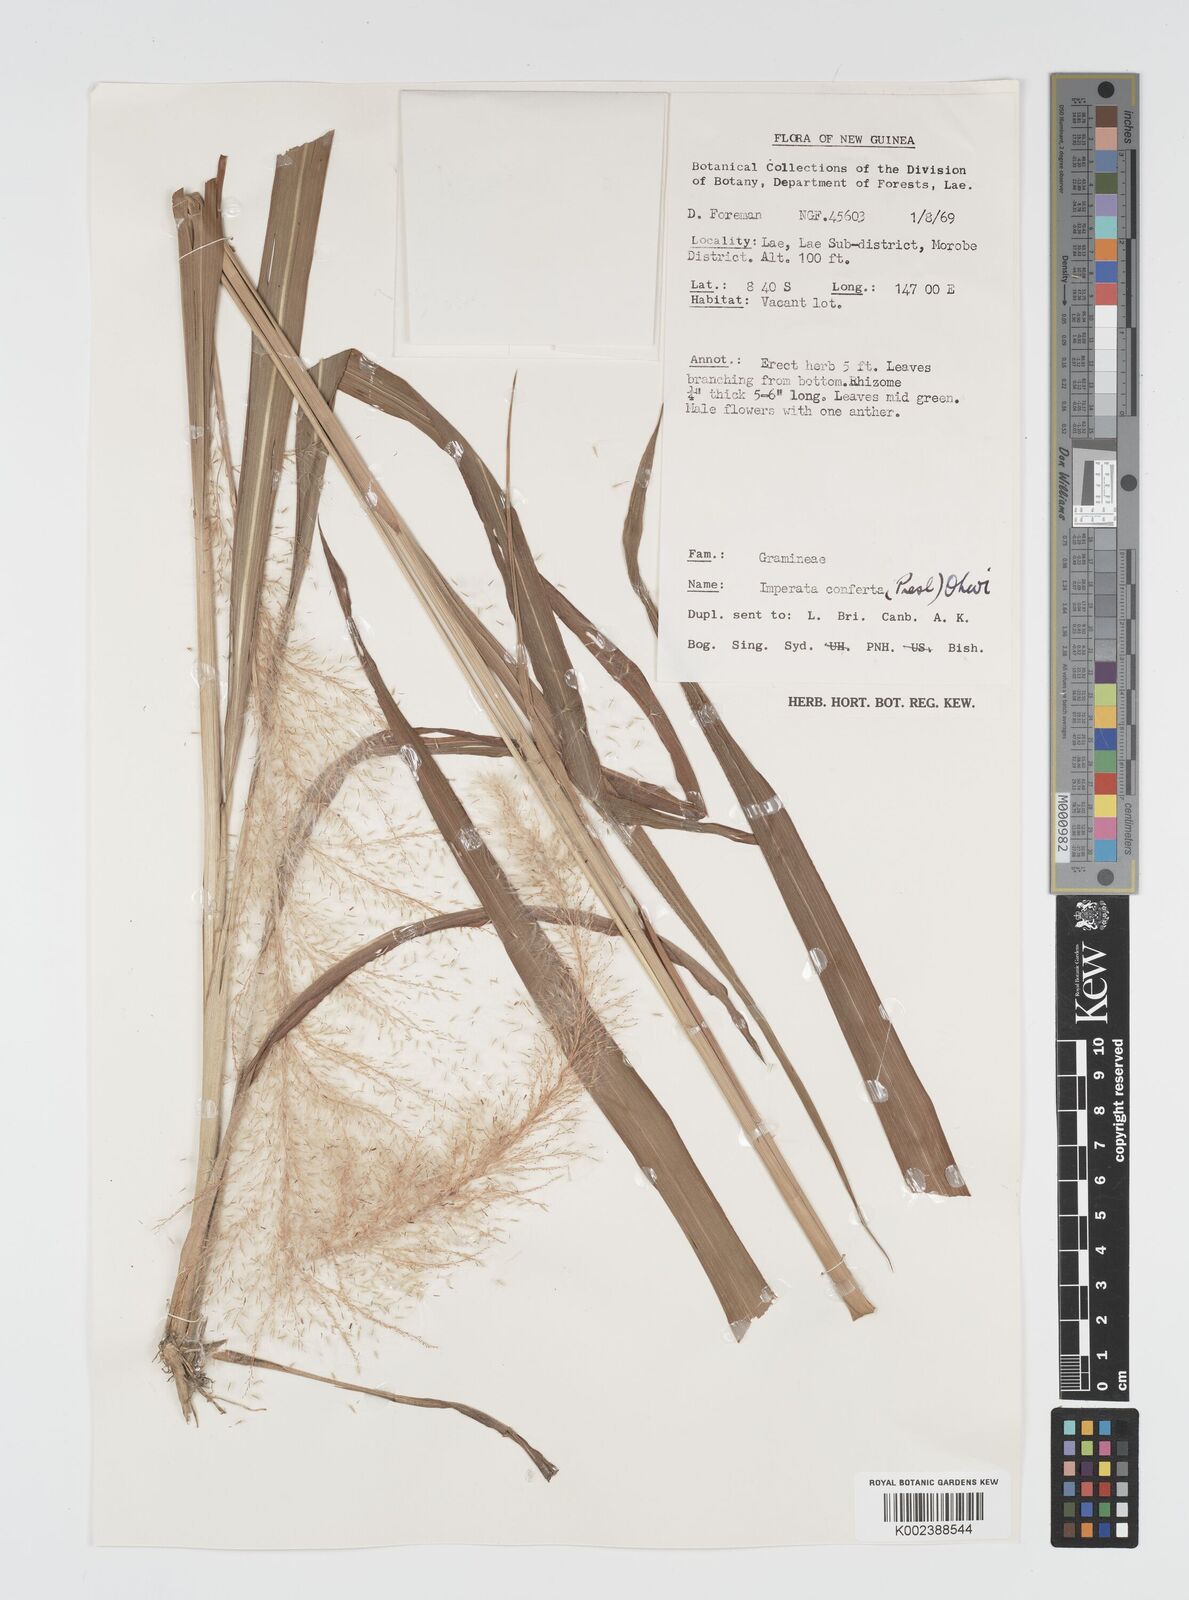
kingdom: Plantae
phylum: Tracheophyta
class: Liliopsida
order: Poales
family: Poaceae
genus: Imperata
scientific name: Imperata conferta
